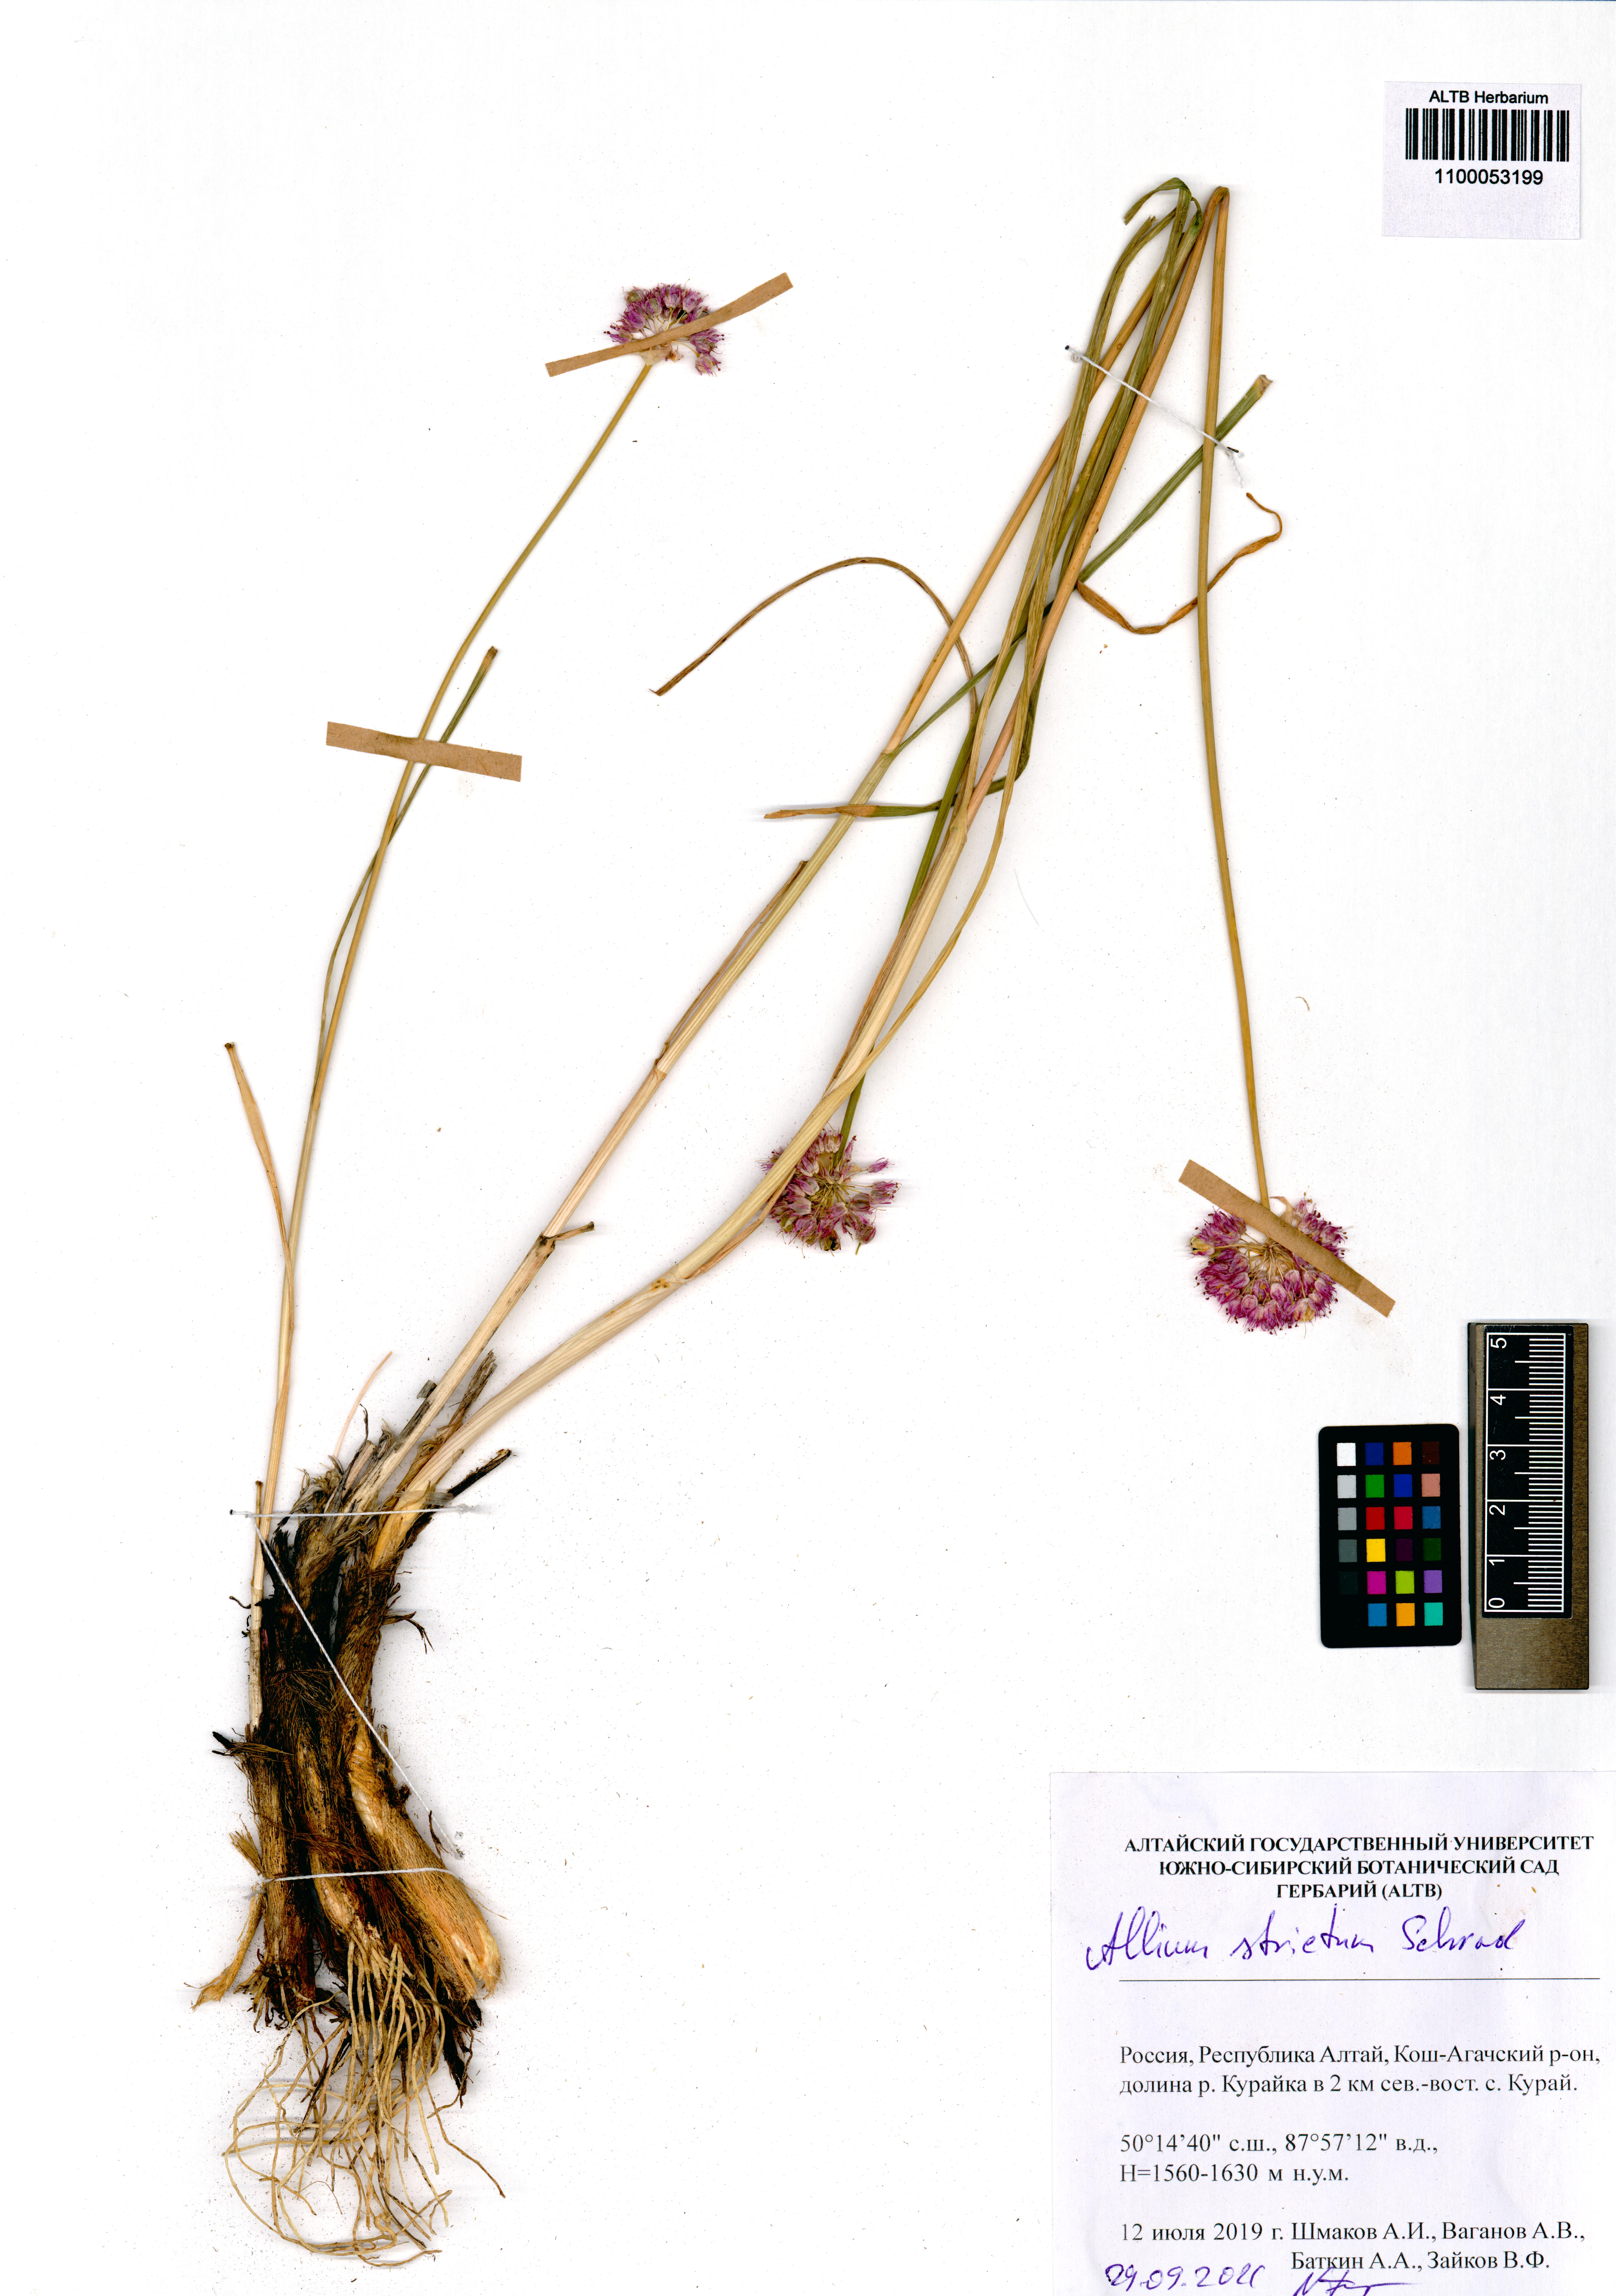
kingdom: Plantae
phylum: Tracheophyta
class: Liliopsida
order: Asparagales
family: Amaryllidaceae
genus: Allium
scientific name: Allium strictum
